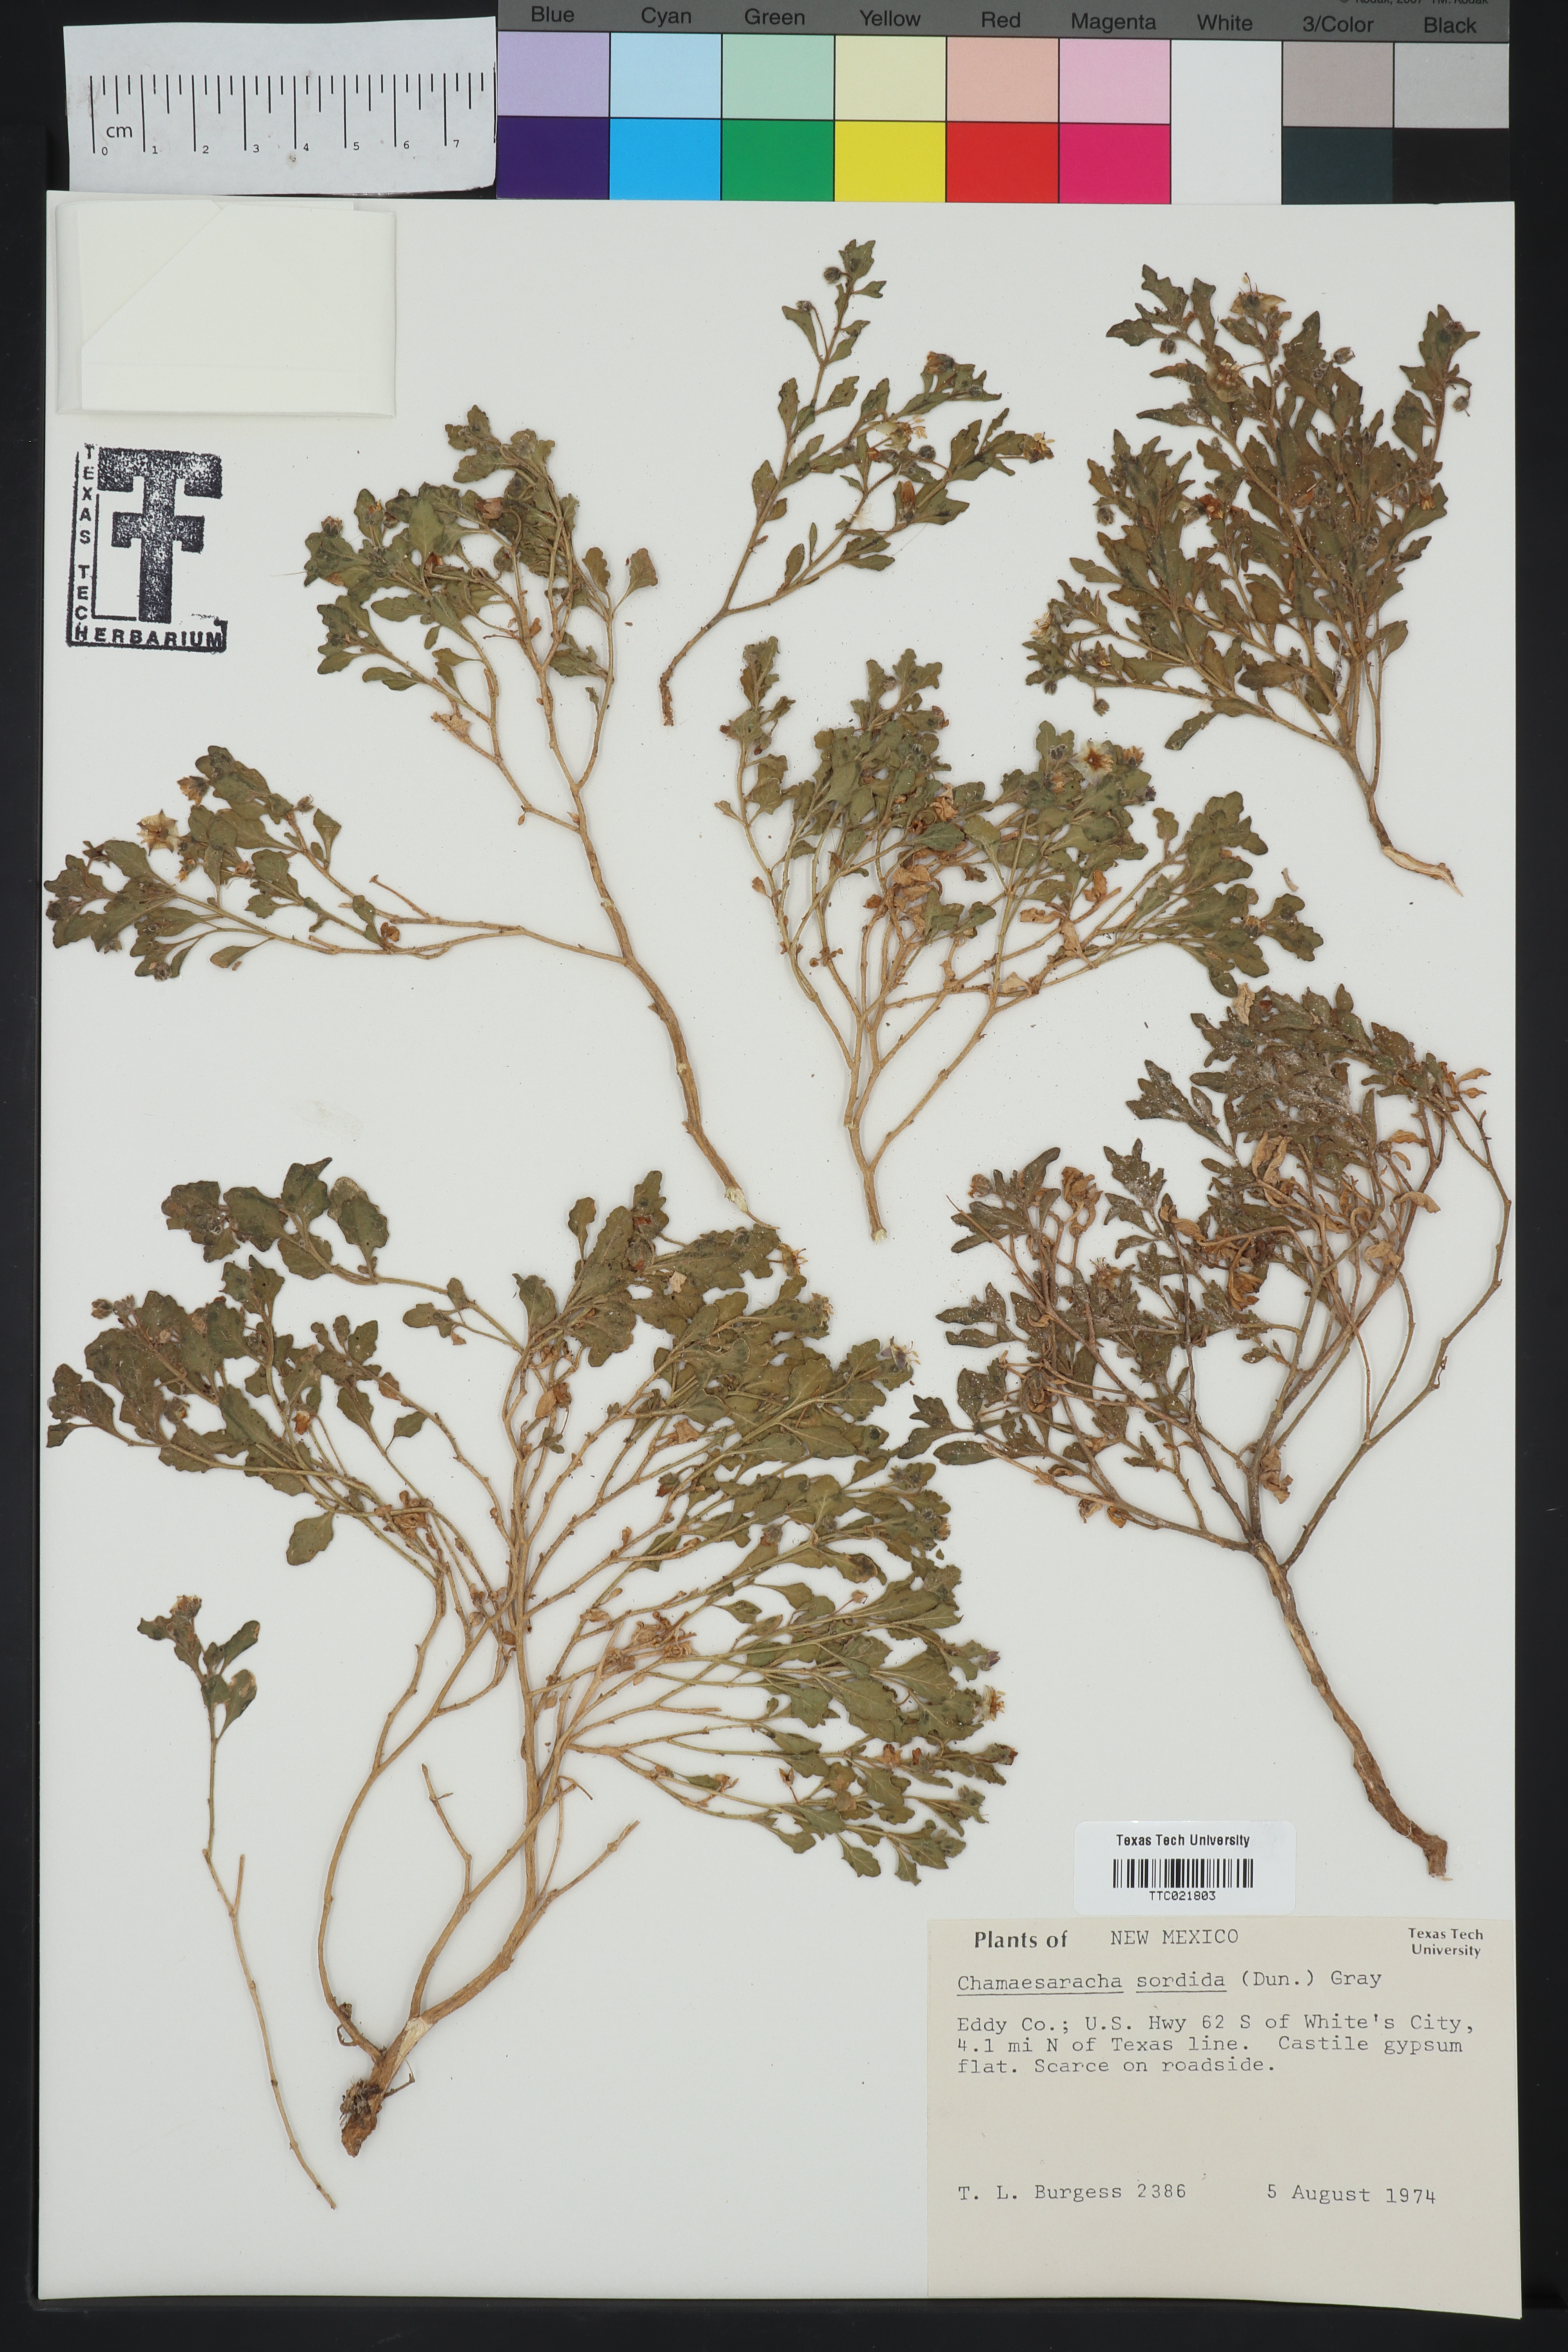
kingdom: Plantae
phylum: Tracheophyta
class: Magnoliopsida
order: Solanales
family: Solanaceae
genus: Chamaesaracha
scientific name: Chamaesaracha sordida
